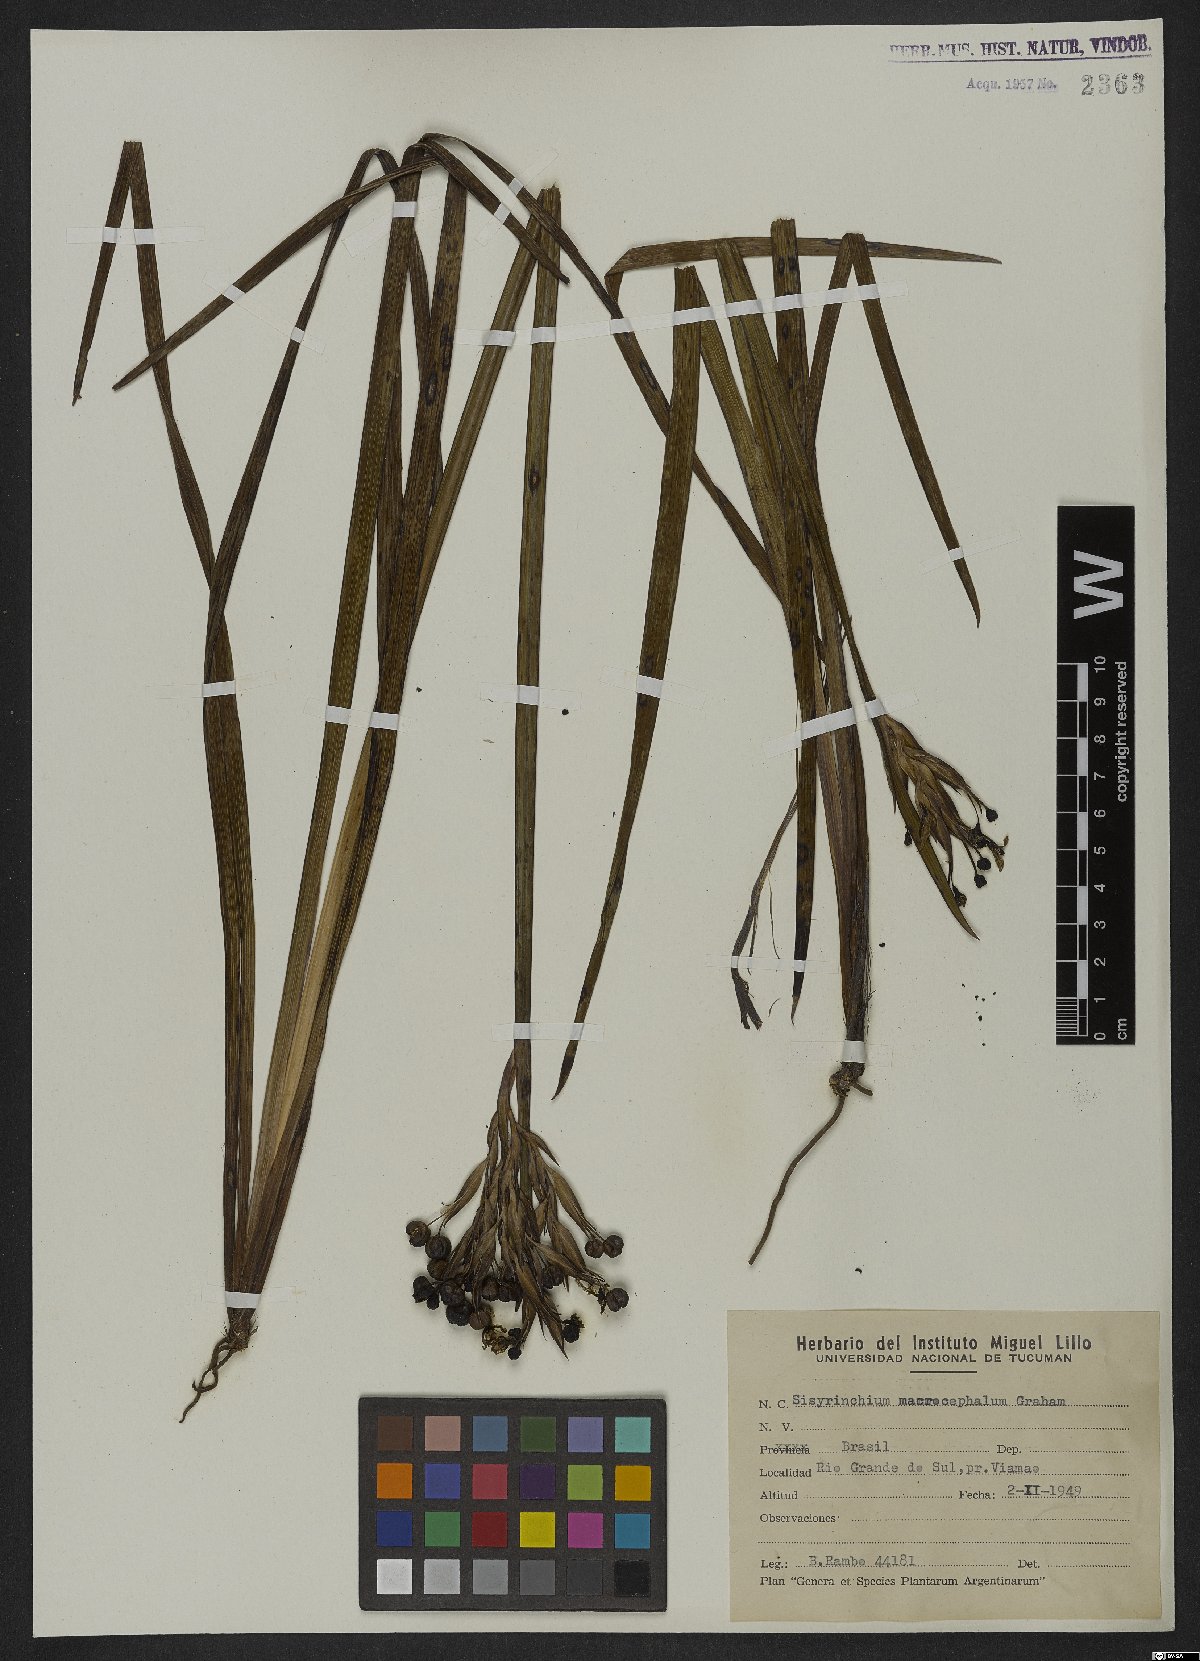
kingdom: Plantae
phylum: Tracheophyta
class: Liliopsida
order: Asparagales
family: Iridaceae
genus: Sisyrinchium
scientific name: Sisyrinchium palmifolium
